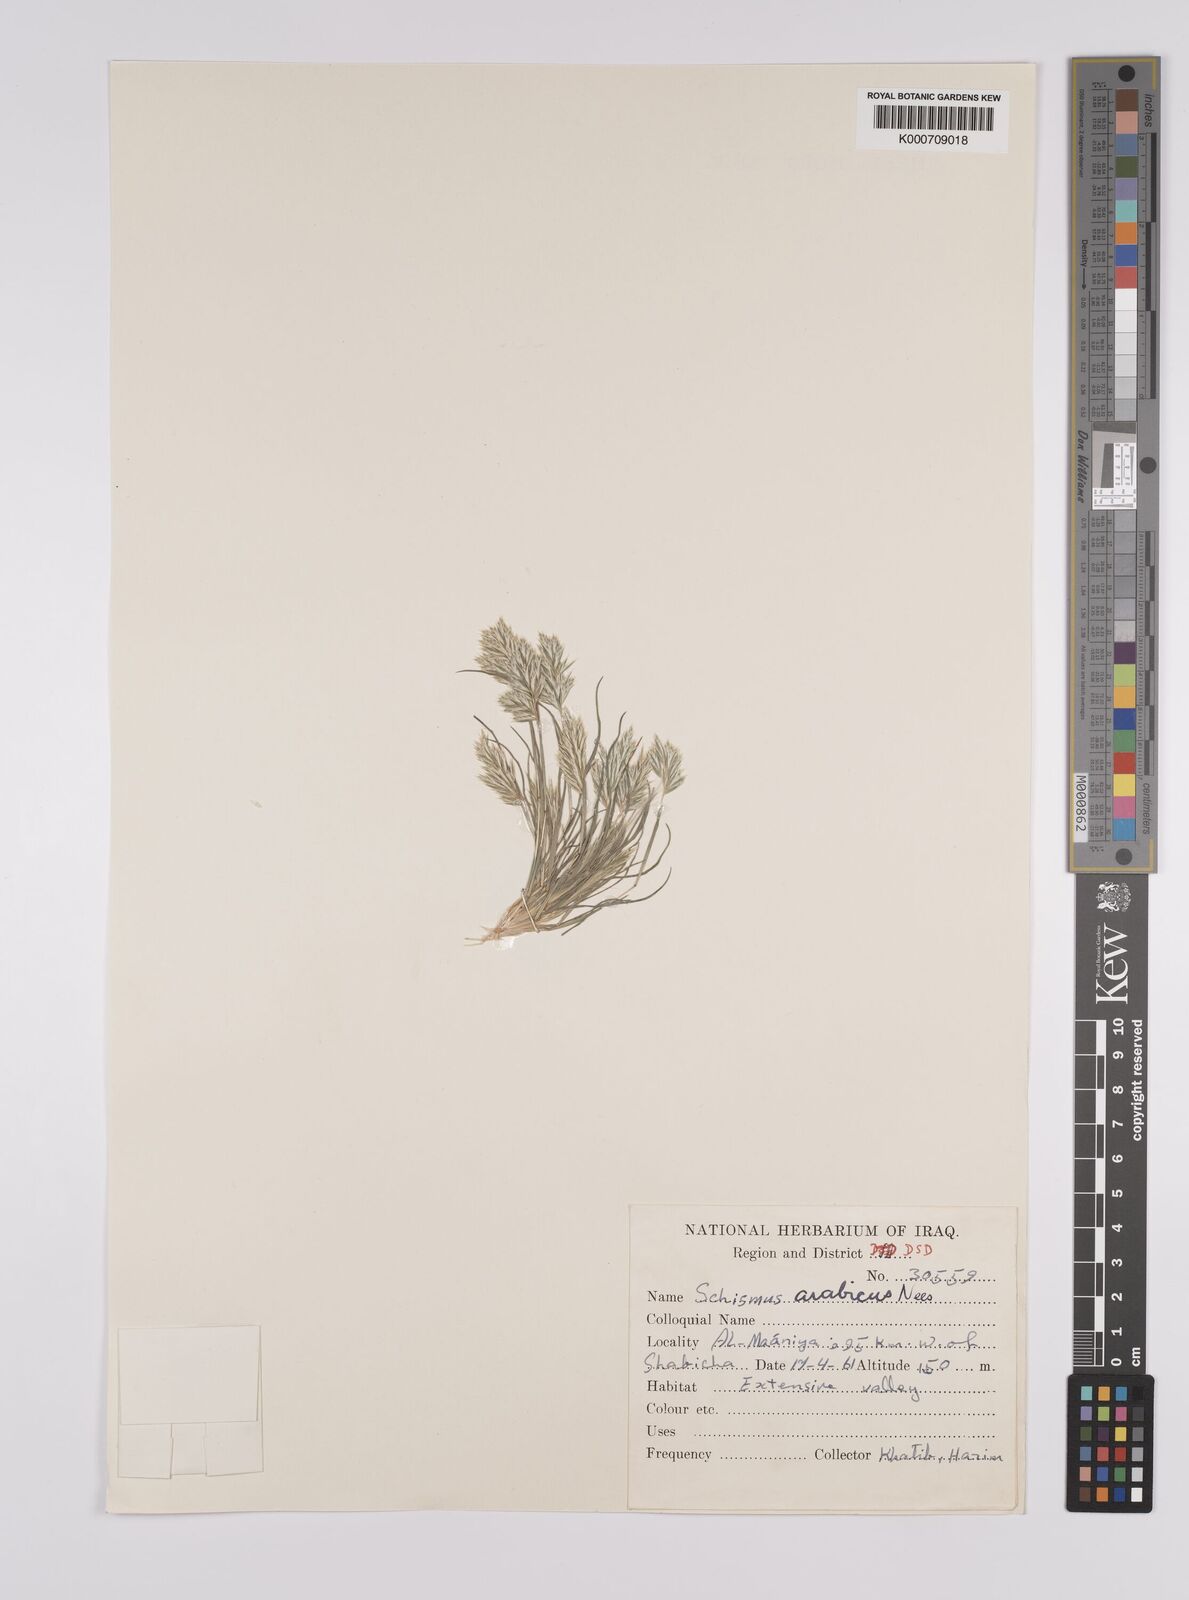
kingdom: Plantae
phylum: Tracheophyta
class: Liliopsida
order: Poales
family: Poaceae
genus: Schismus
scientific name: Schismus arabicus
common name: Arabian schismus
